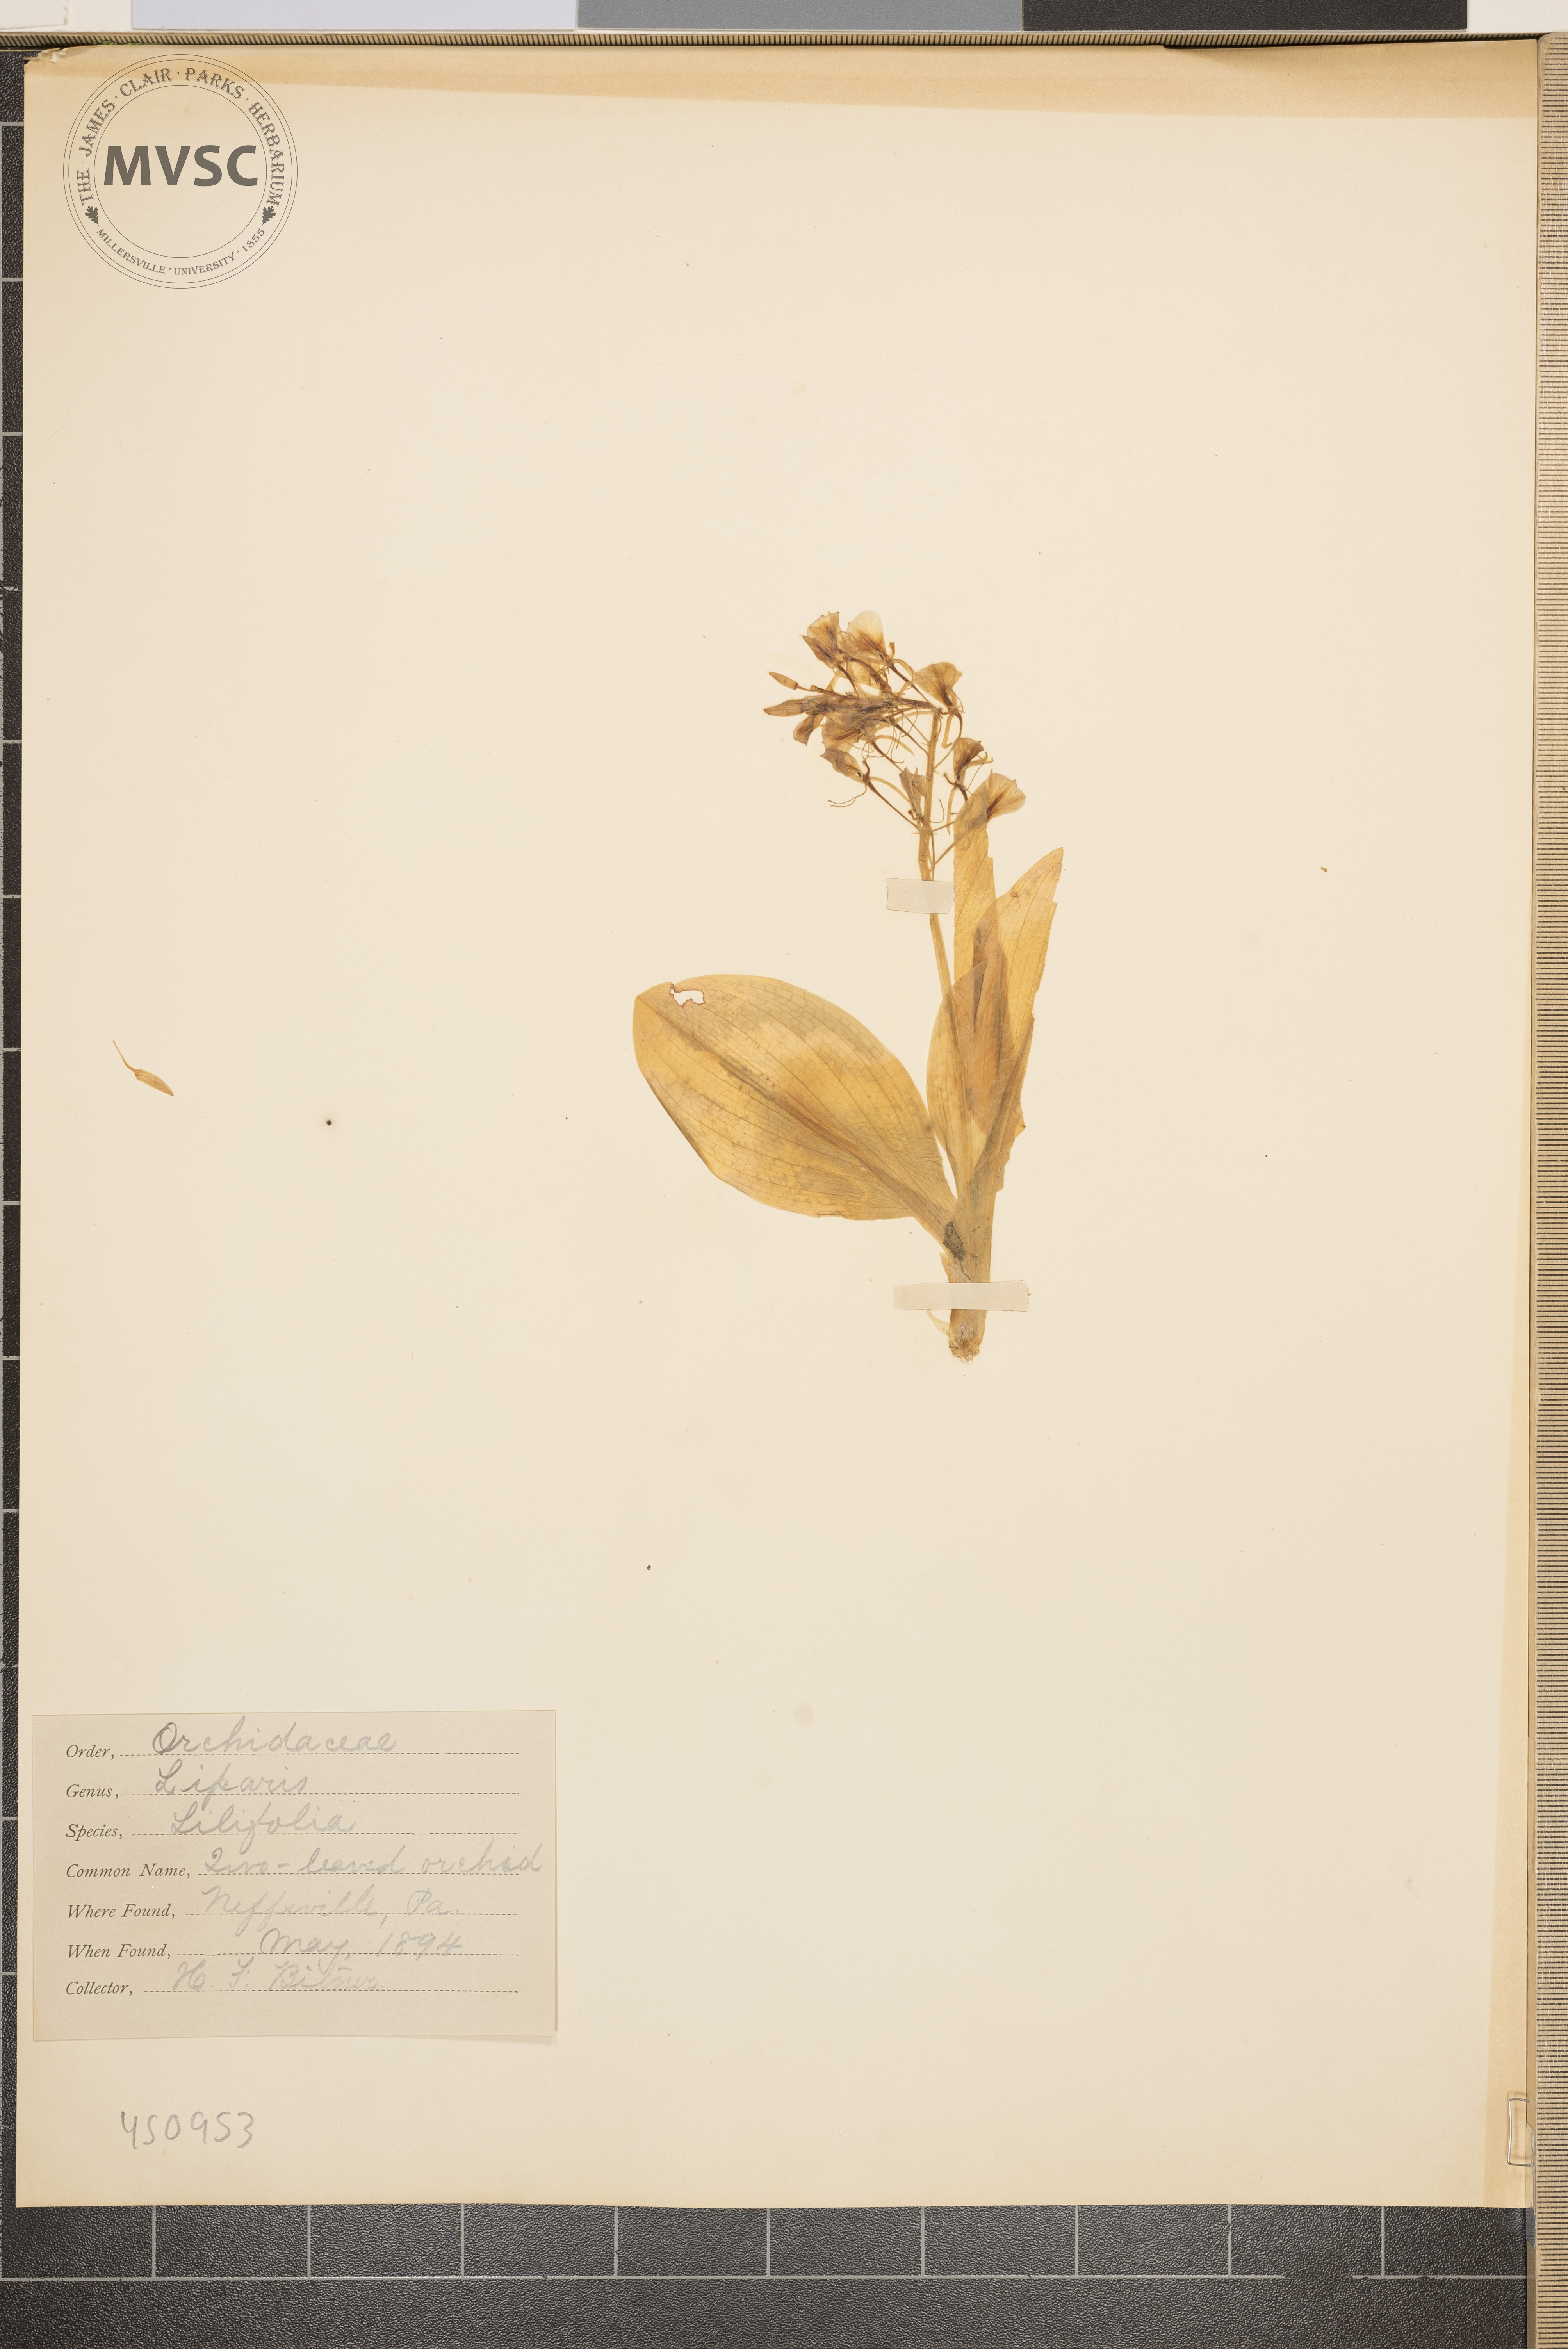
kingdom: Plantae
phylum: Tracheophyta
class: Liliopsida
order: Asparagales
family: Orchidaceae
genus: Liparis
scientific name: Liparis liliifolia
